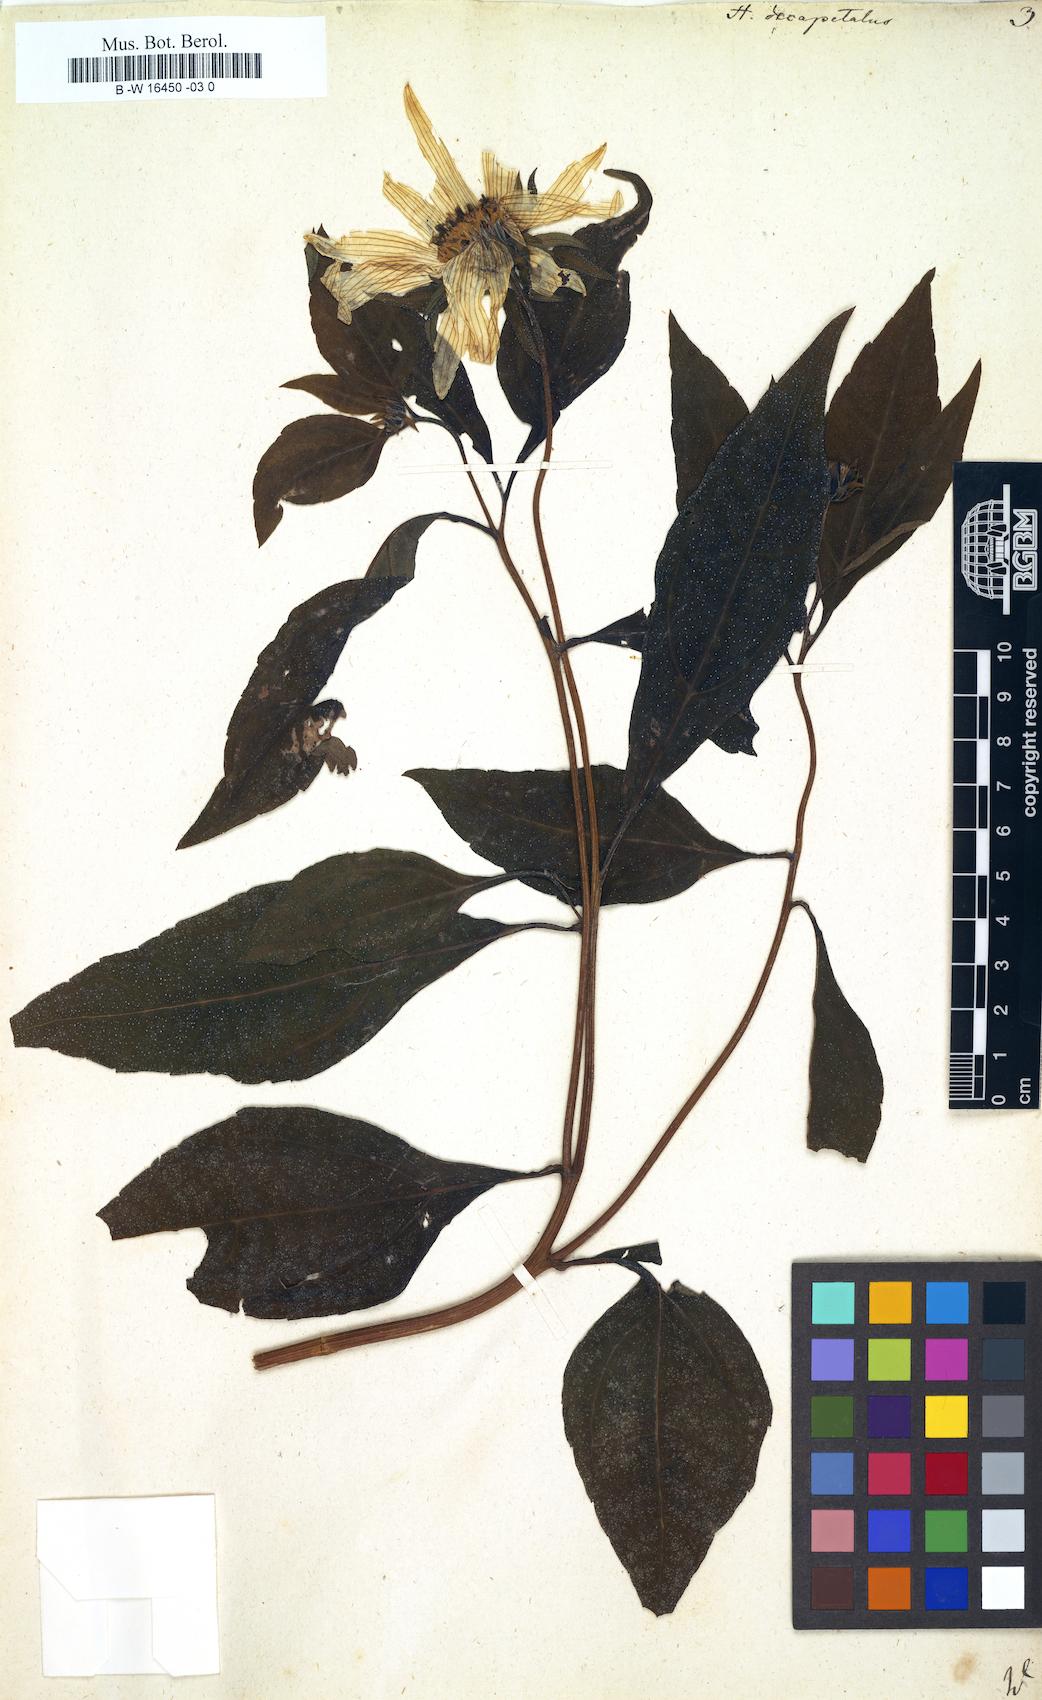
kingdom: Plantae
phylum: Tracheophyta
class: Magnoliopsida
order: Asterales
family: Asteraceae
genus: Helianthus
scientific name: Helianthus strumosus
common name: Pale-leaved sunflower
